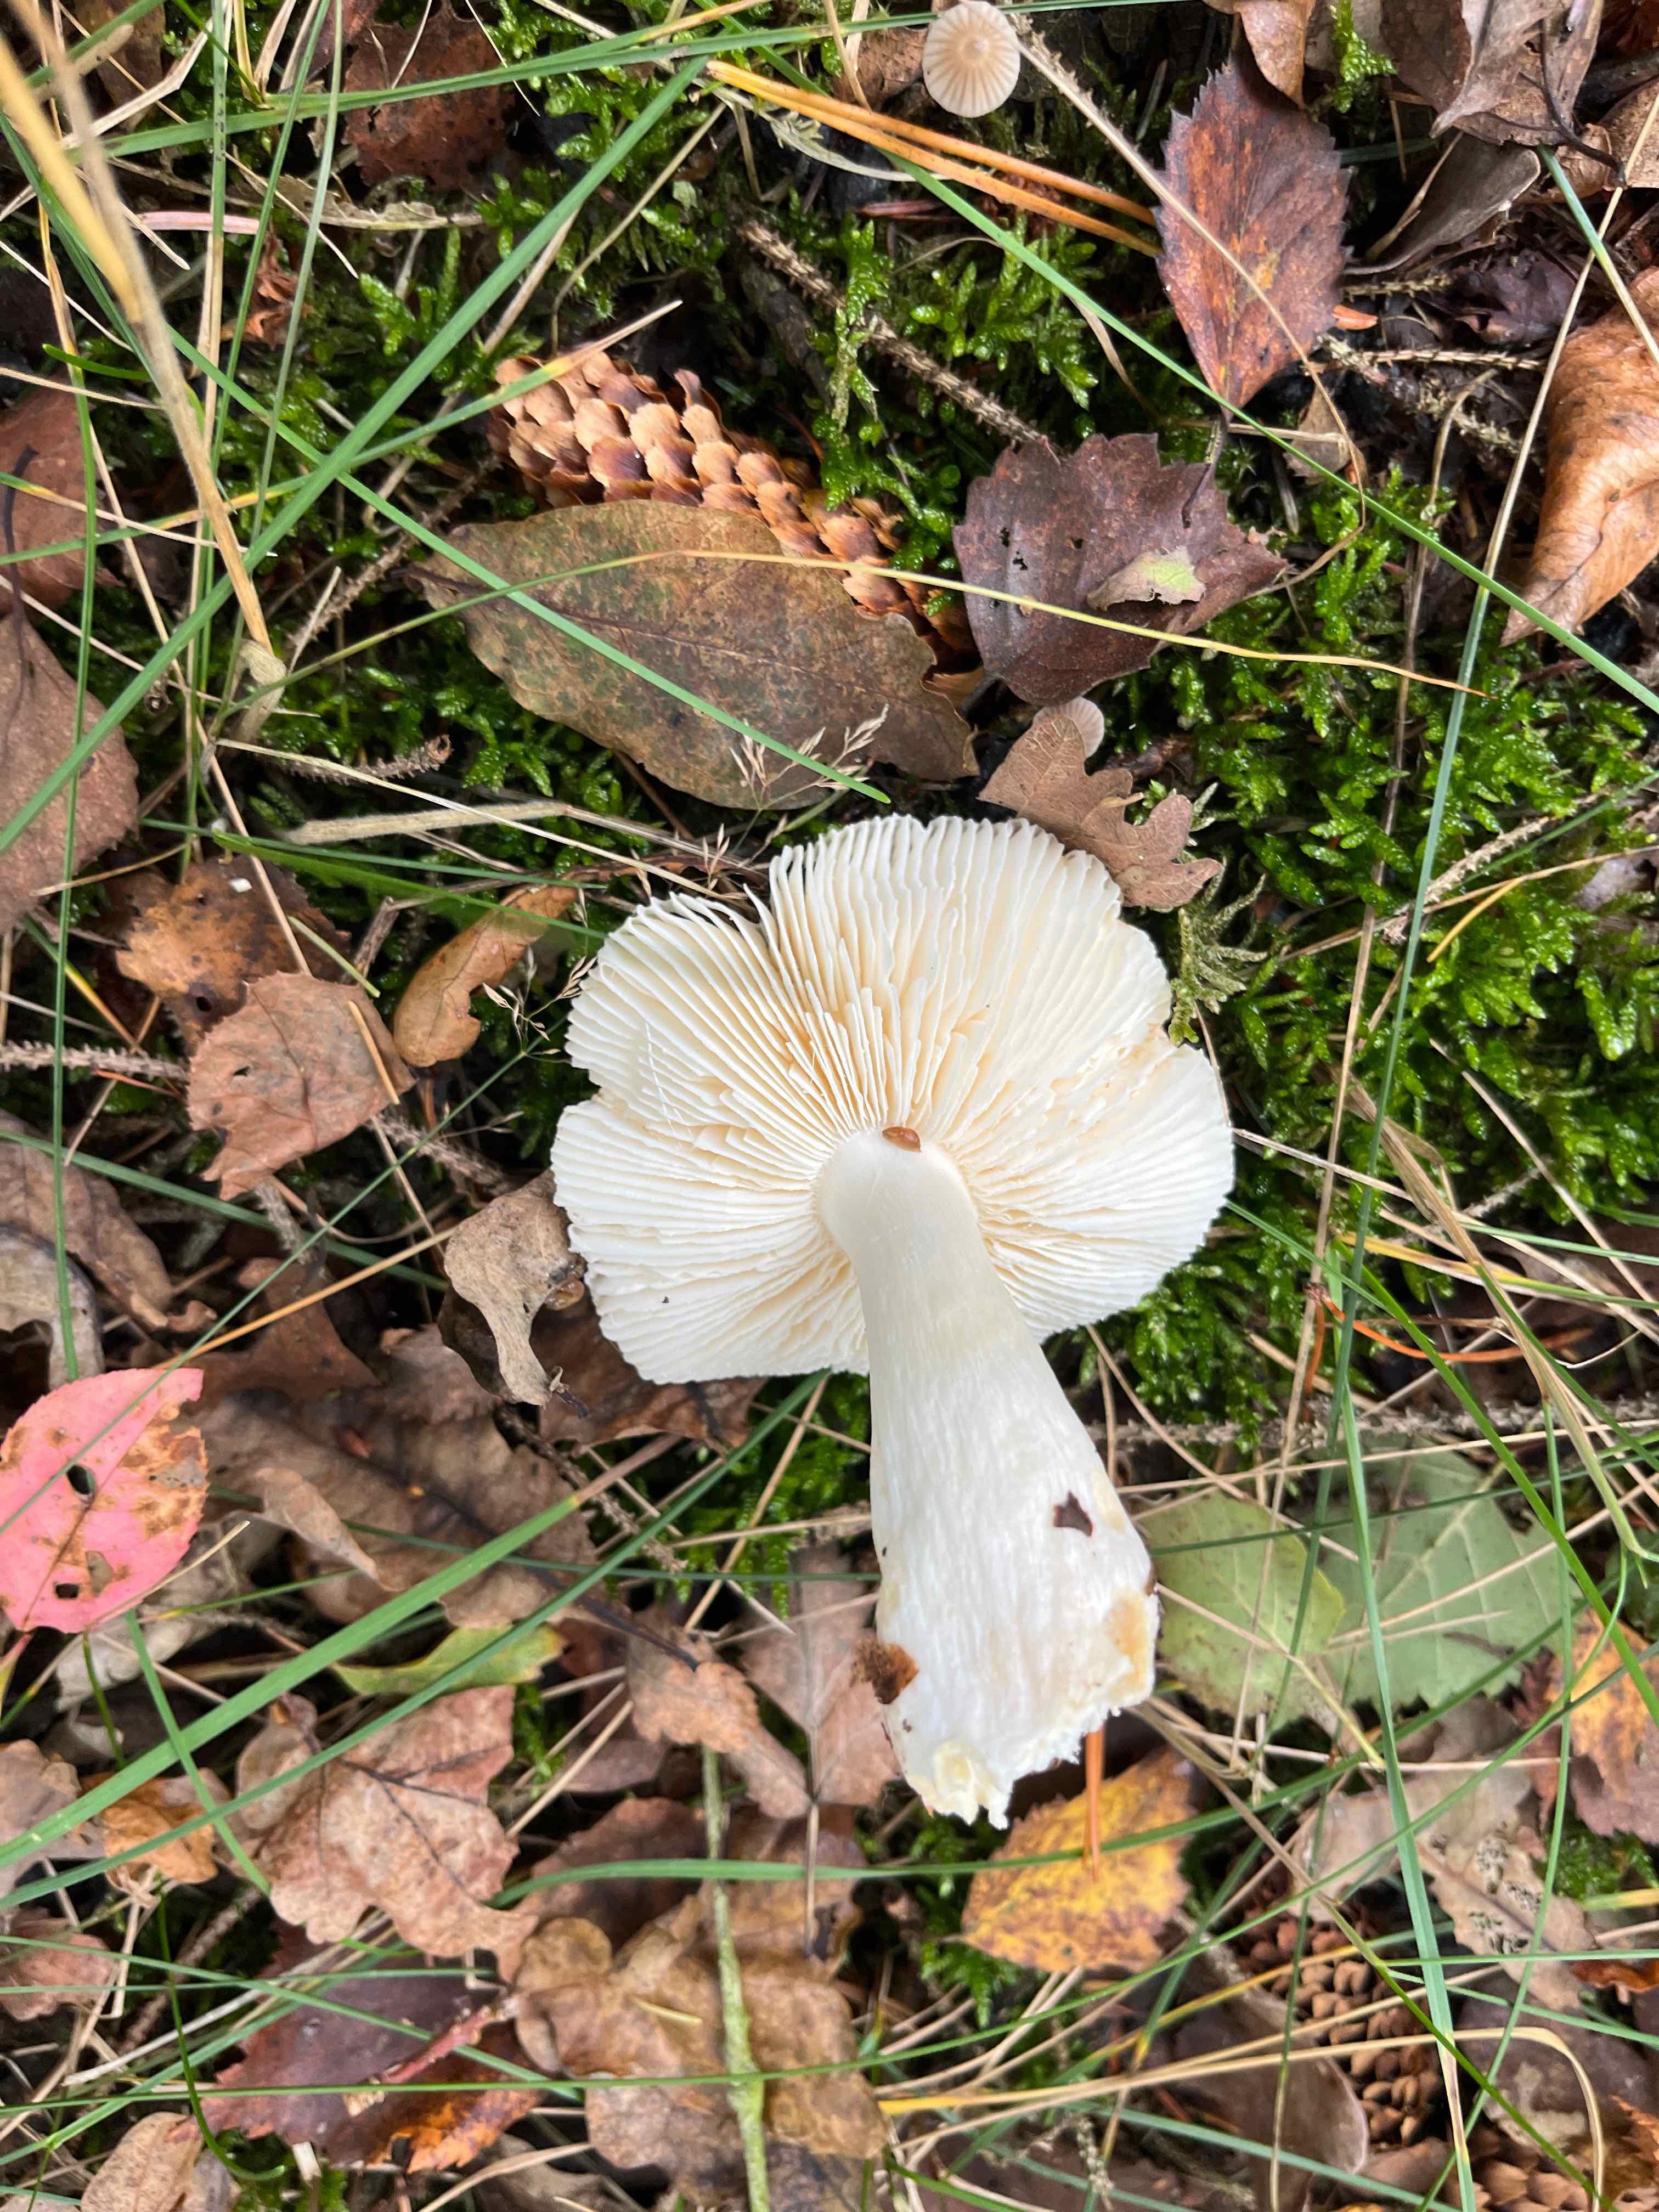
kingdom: Fungi
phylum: Basidiomycota
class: Agaricomycetes
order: Russulales
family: Russulaceae
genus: Russula
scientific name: Russula
